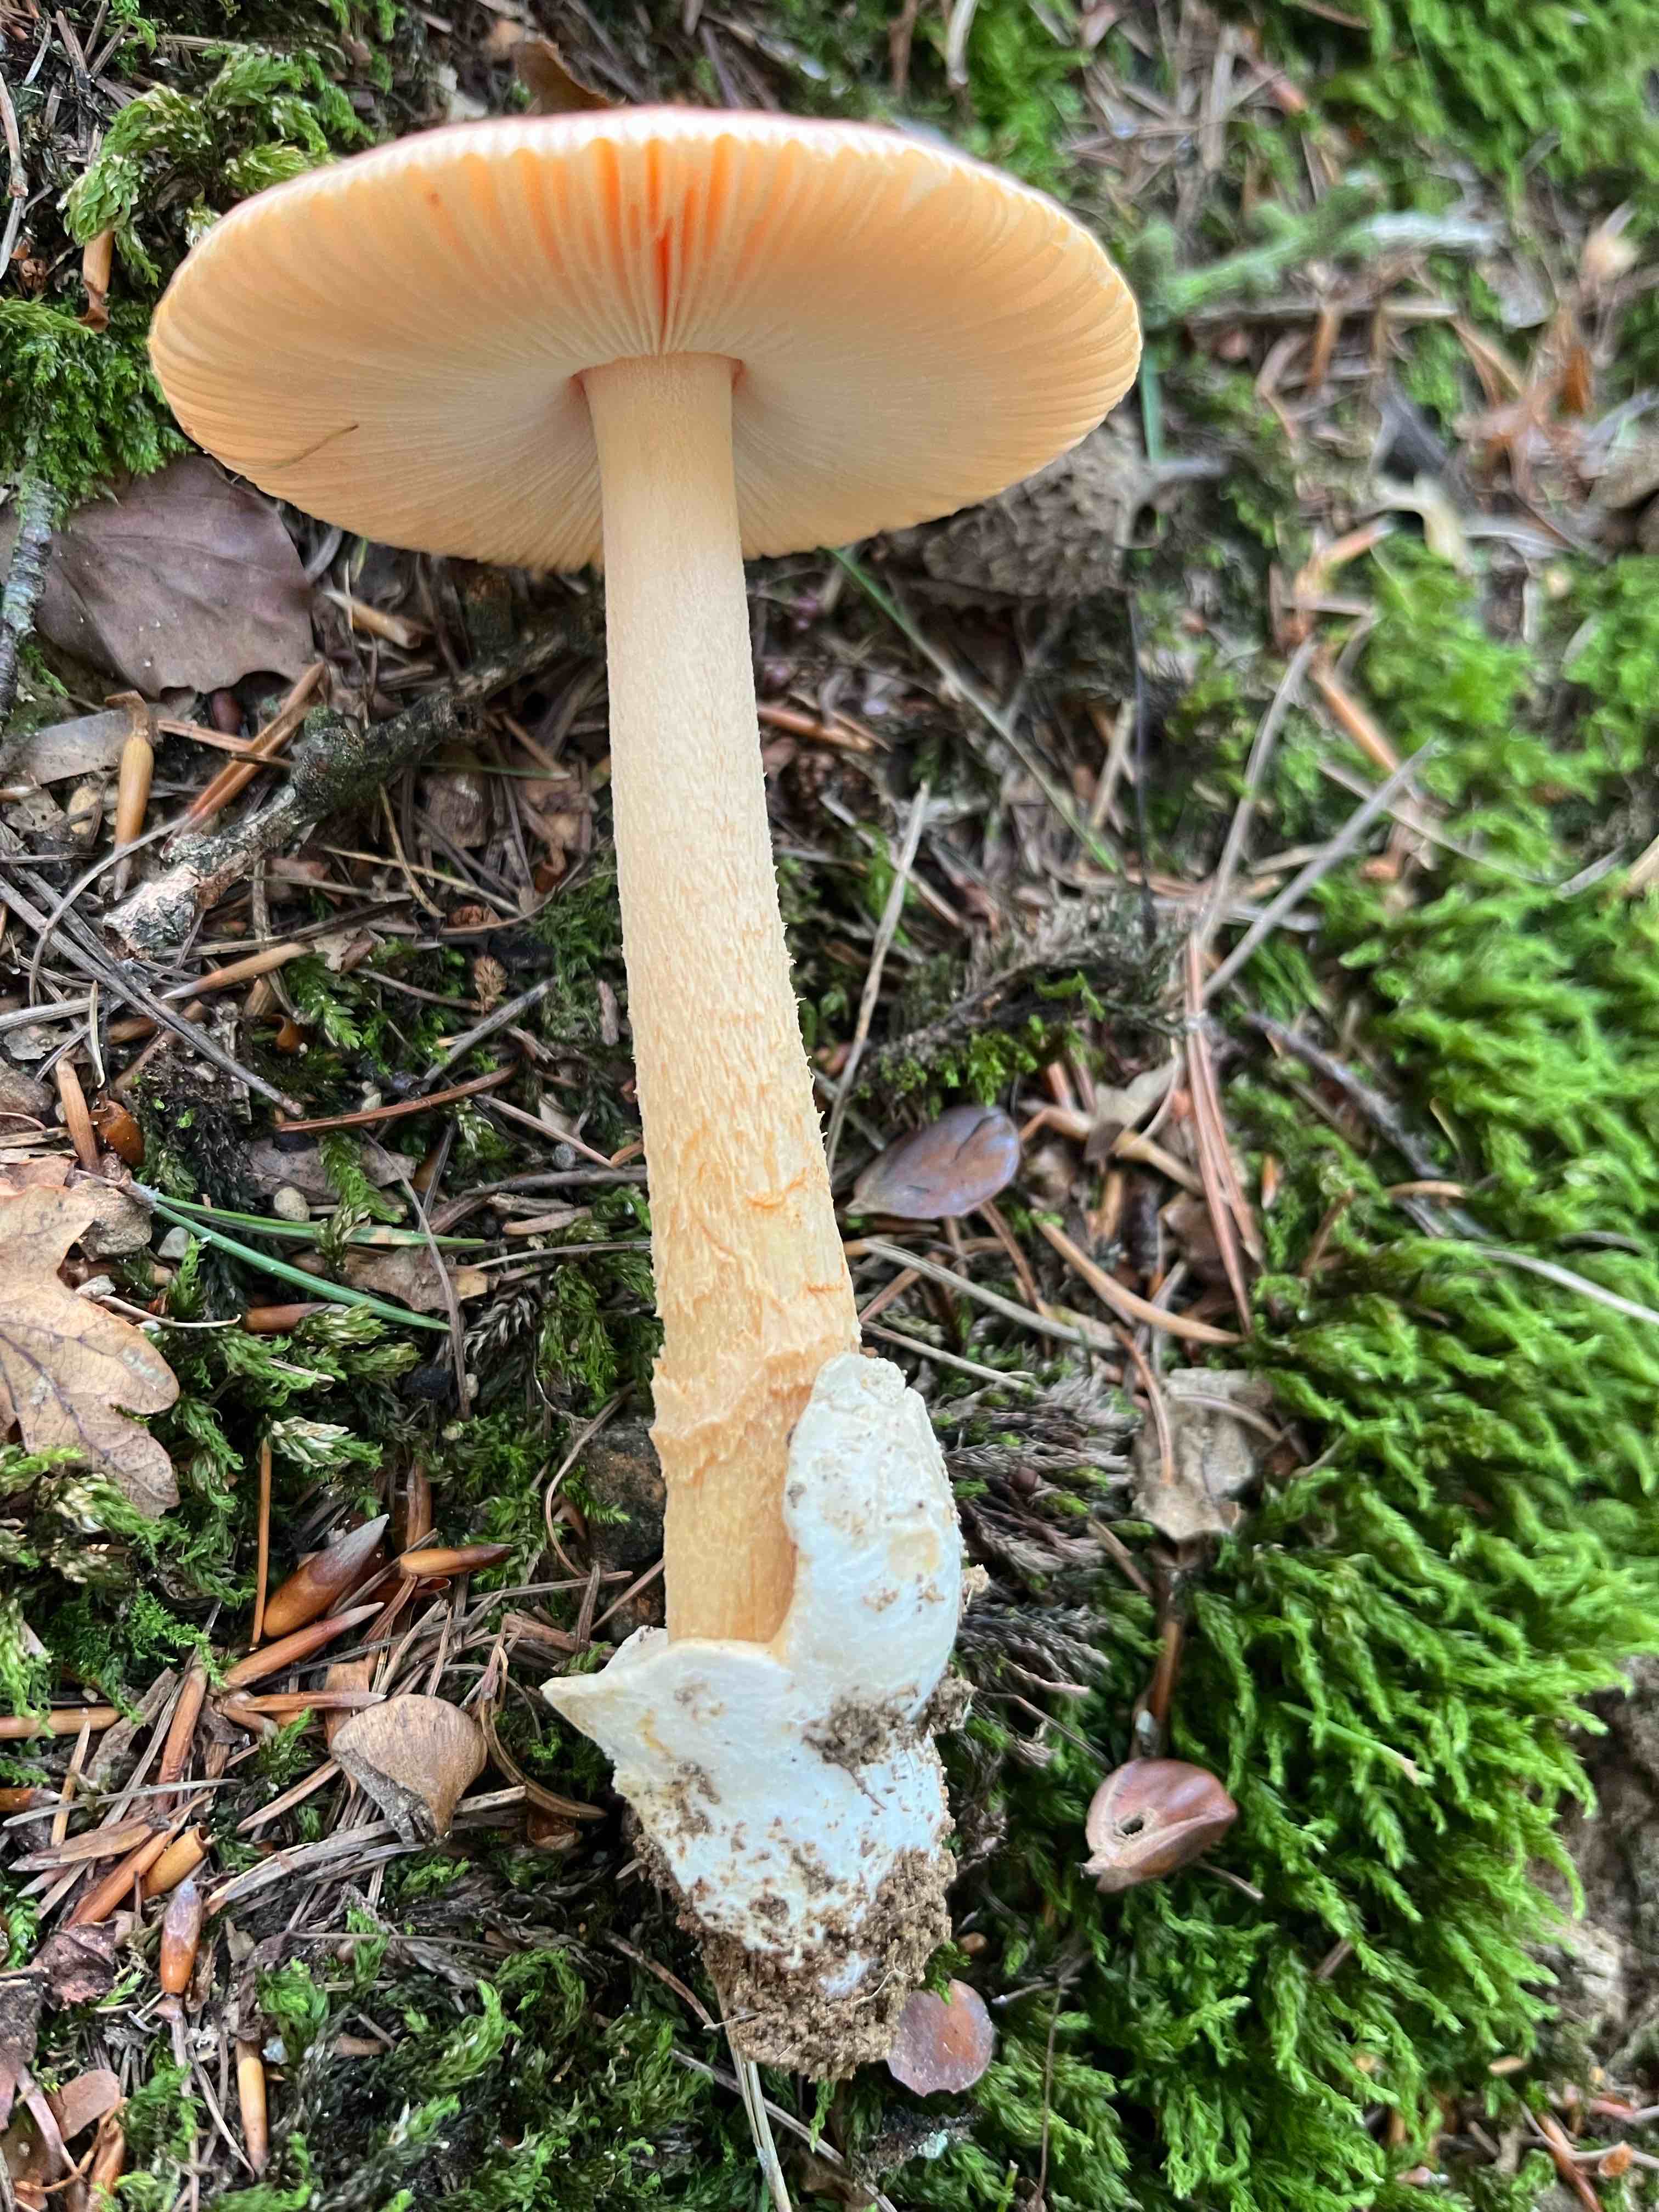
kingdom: Fungi
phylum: Basidiomycota
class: Agaricomycetes
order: Agaricales
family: Amanitaceae
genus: Amanita
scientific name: Amanita crocea
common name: gylden kam-fluesvamp
